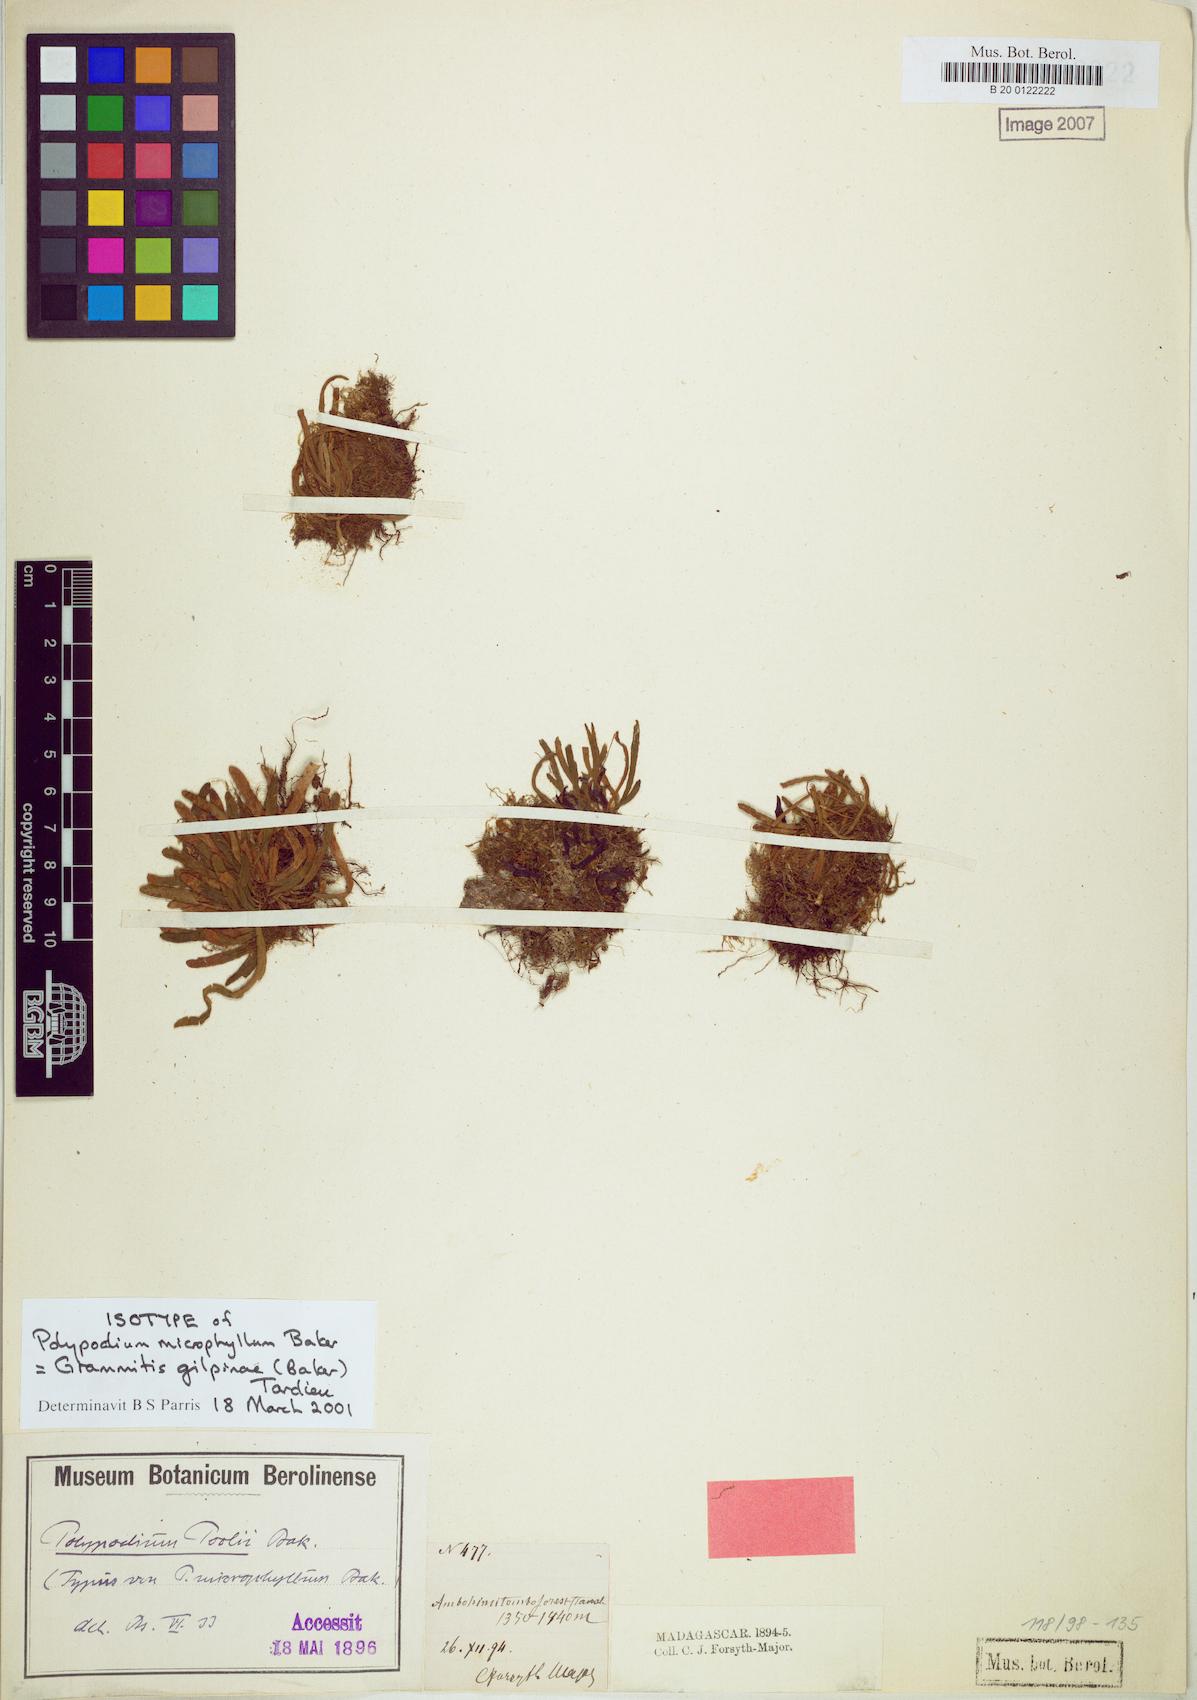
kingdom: Plantae
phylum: Tracheophyta
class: Polypodiopsida
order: Polypodiales
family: Polypodiaceae
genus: Parrisia
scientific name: Parrisia parietina
